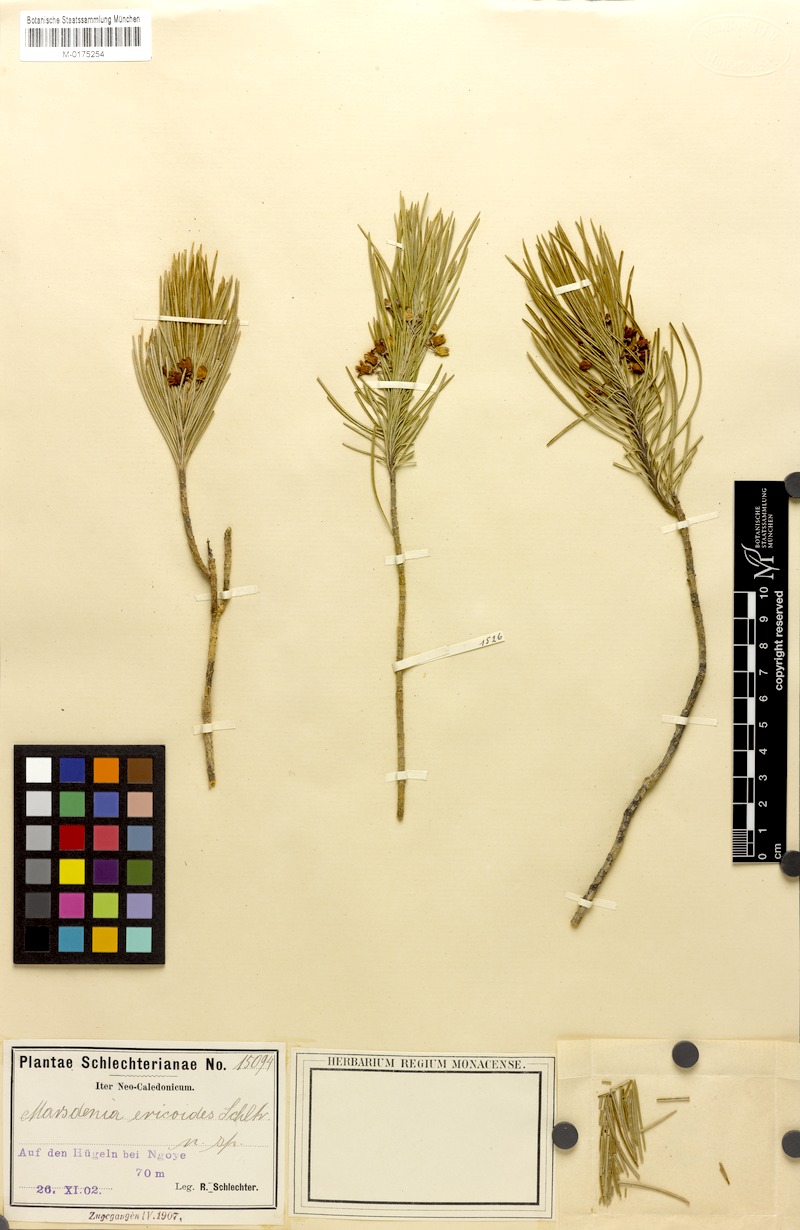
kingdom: Plantae
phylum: Tracheophyta
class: Magnoliopsida
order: Gentianales
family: Apocynaceae
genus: Leichhardtia
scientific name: Leichhardtia ericoides
